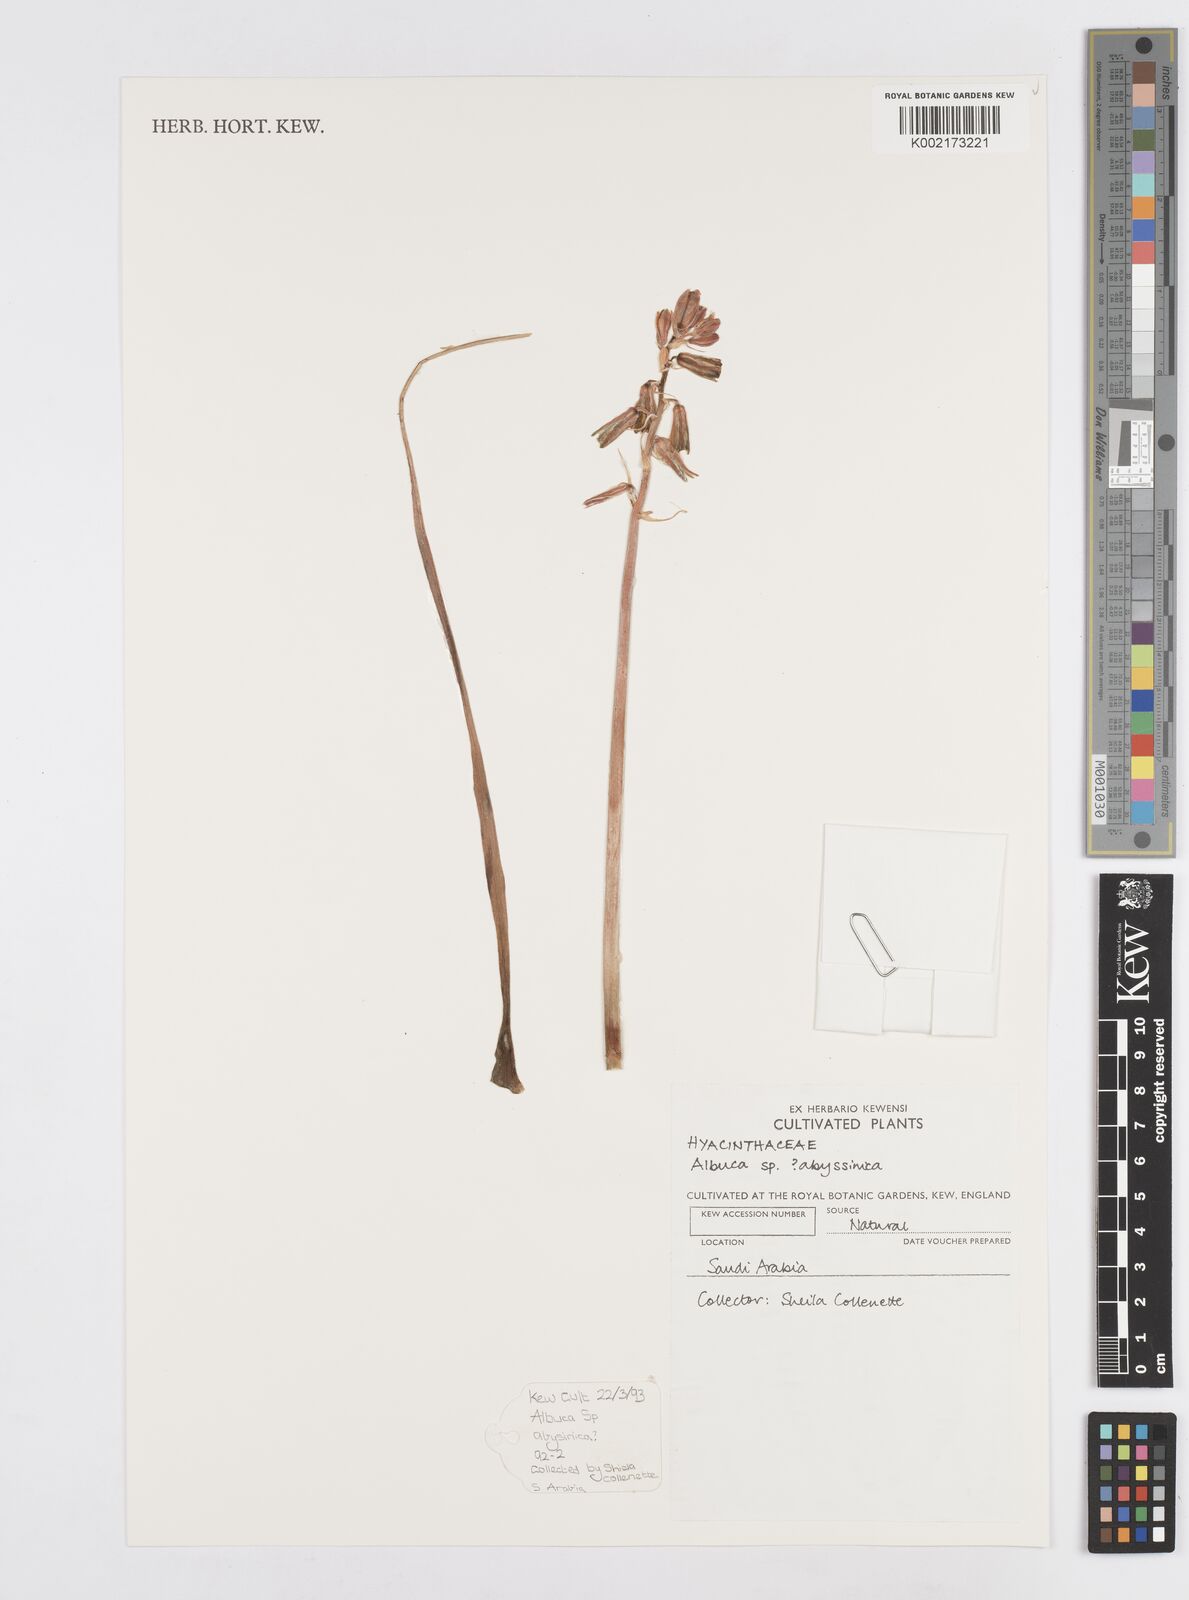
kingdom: Plantae
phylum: Tracheophyta
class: Liliopsida
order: Asparagales
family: Asparagaceae
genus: Albuca
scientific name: Albuca abyssinica
